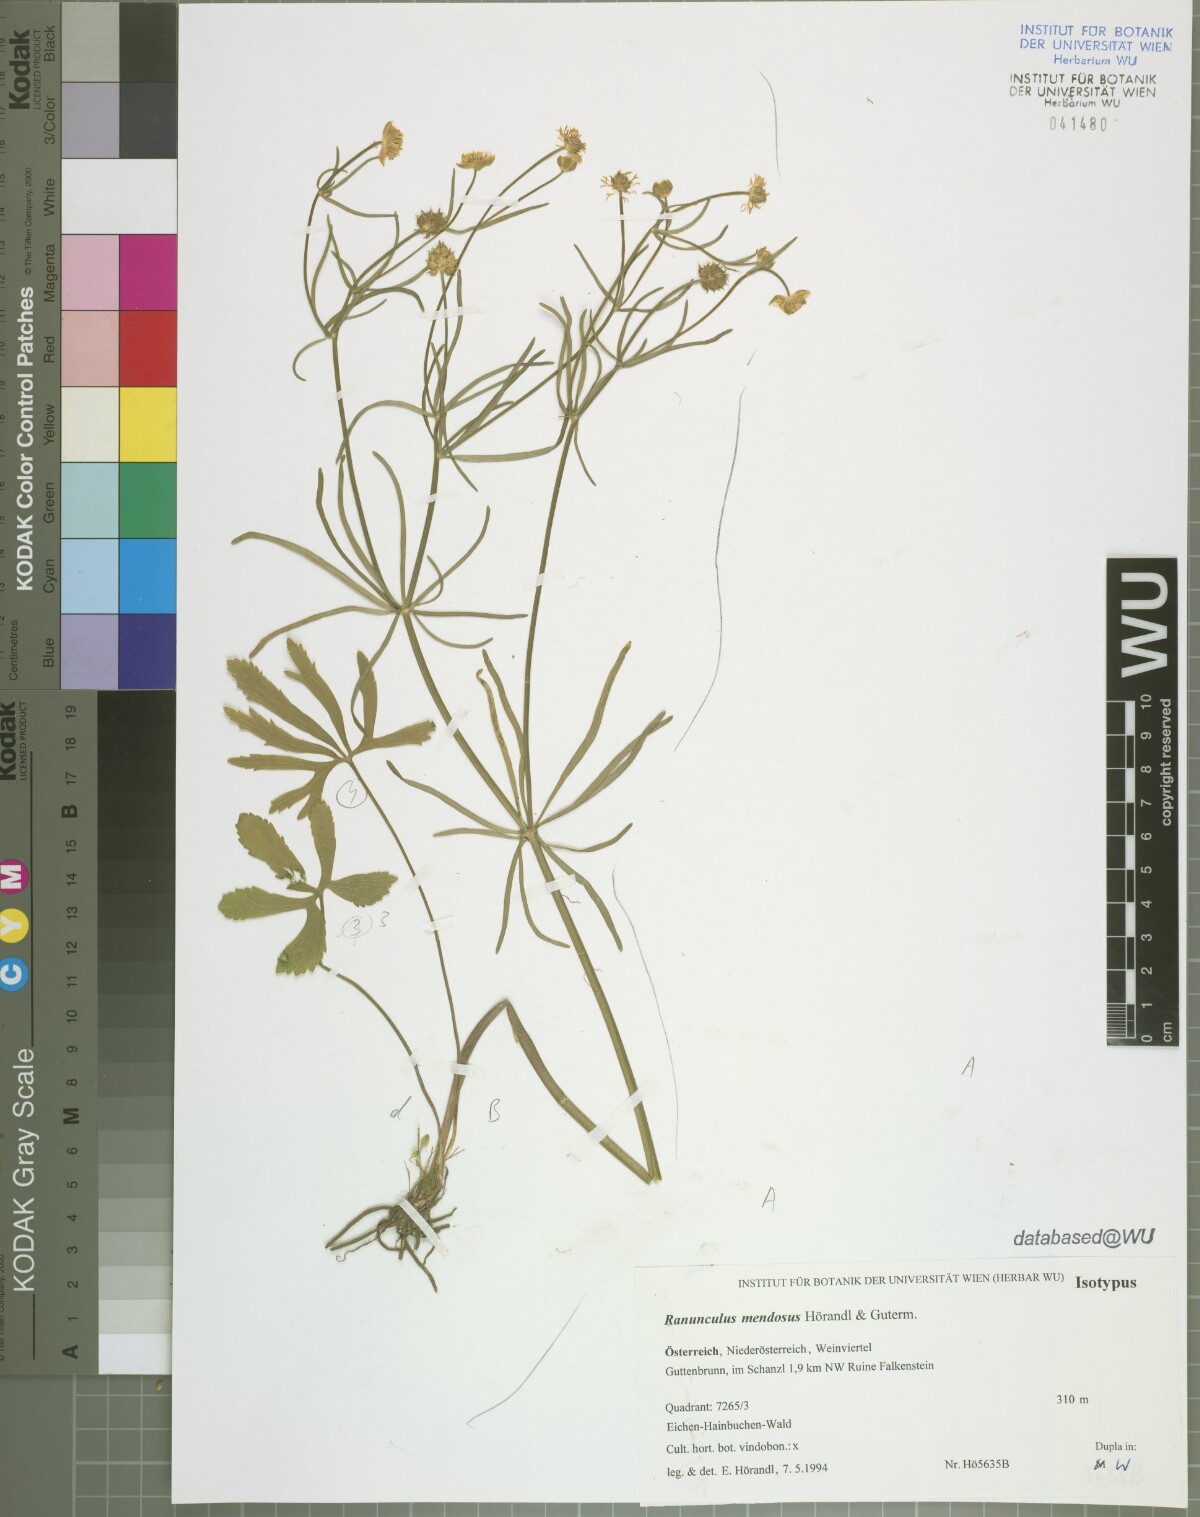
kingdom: Plantae
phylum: Tracheophyta
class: Magnoliopsida
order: Ranunculales
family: Ranunculaceae
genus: Ranunculus
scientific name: Ranunculus mendosus
